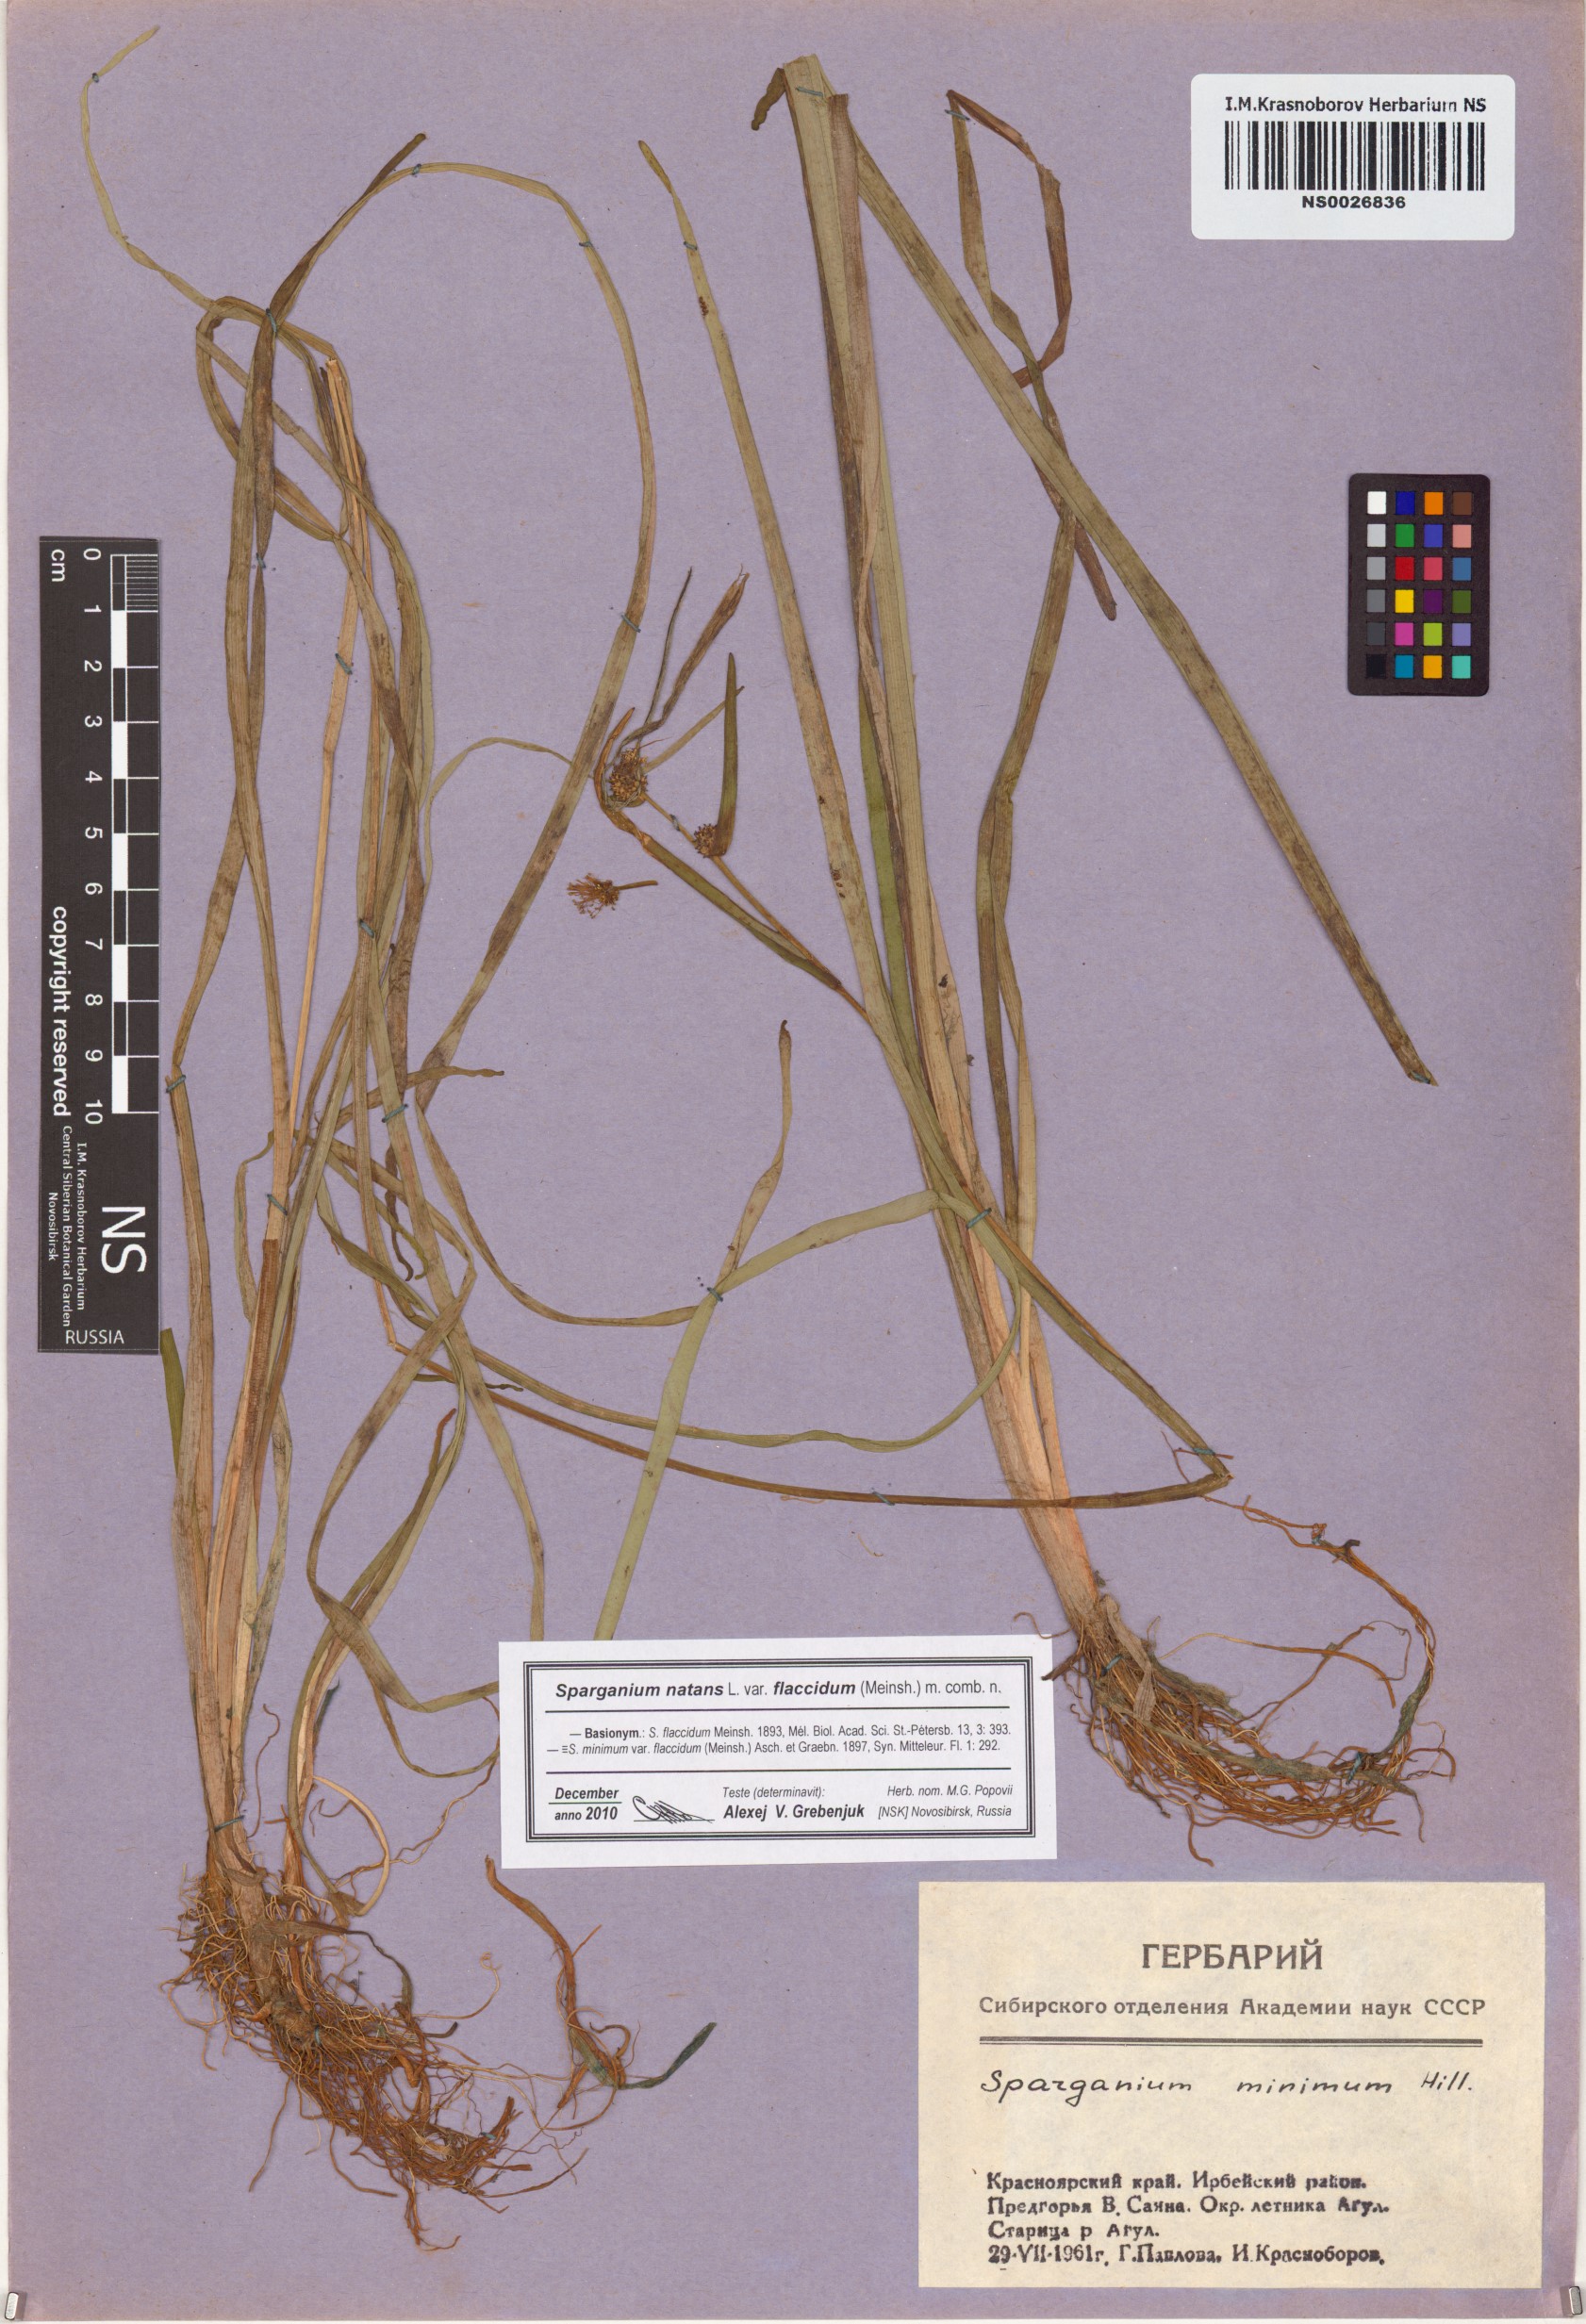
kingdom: Plantae
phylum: Tracheophyta
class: Liliopsida
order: Poales
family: Typhaceae
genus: Sparganium
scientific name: Sparganium natans
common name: Least bur-reed
